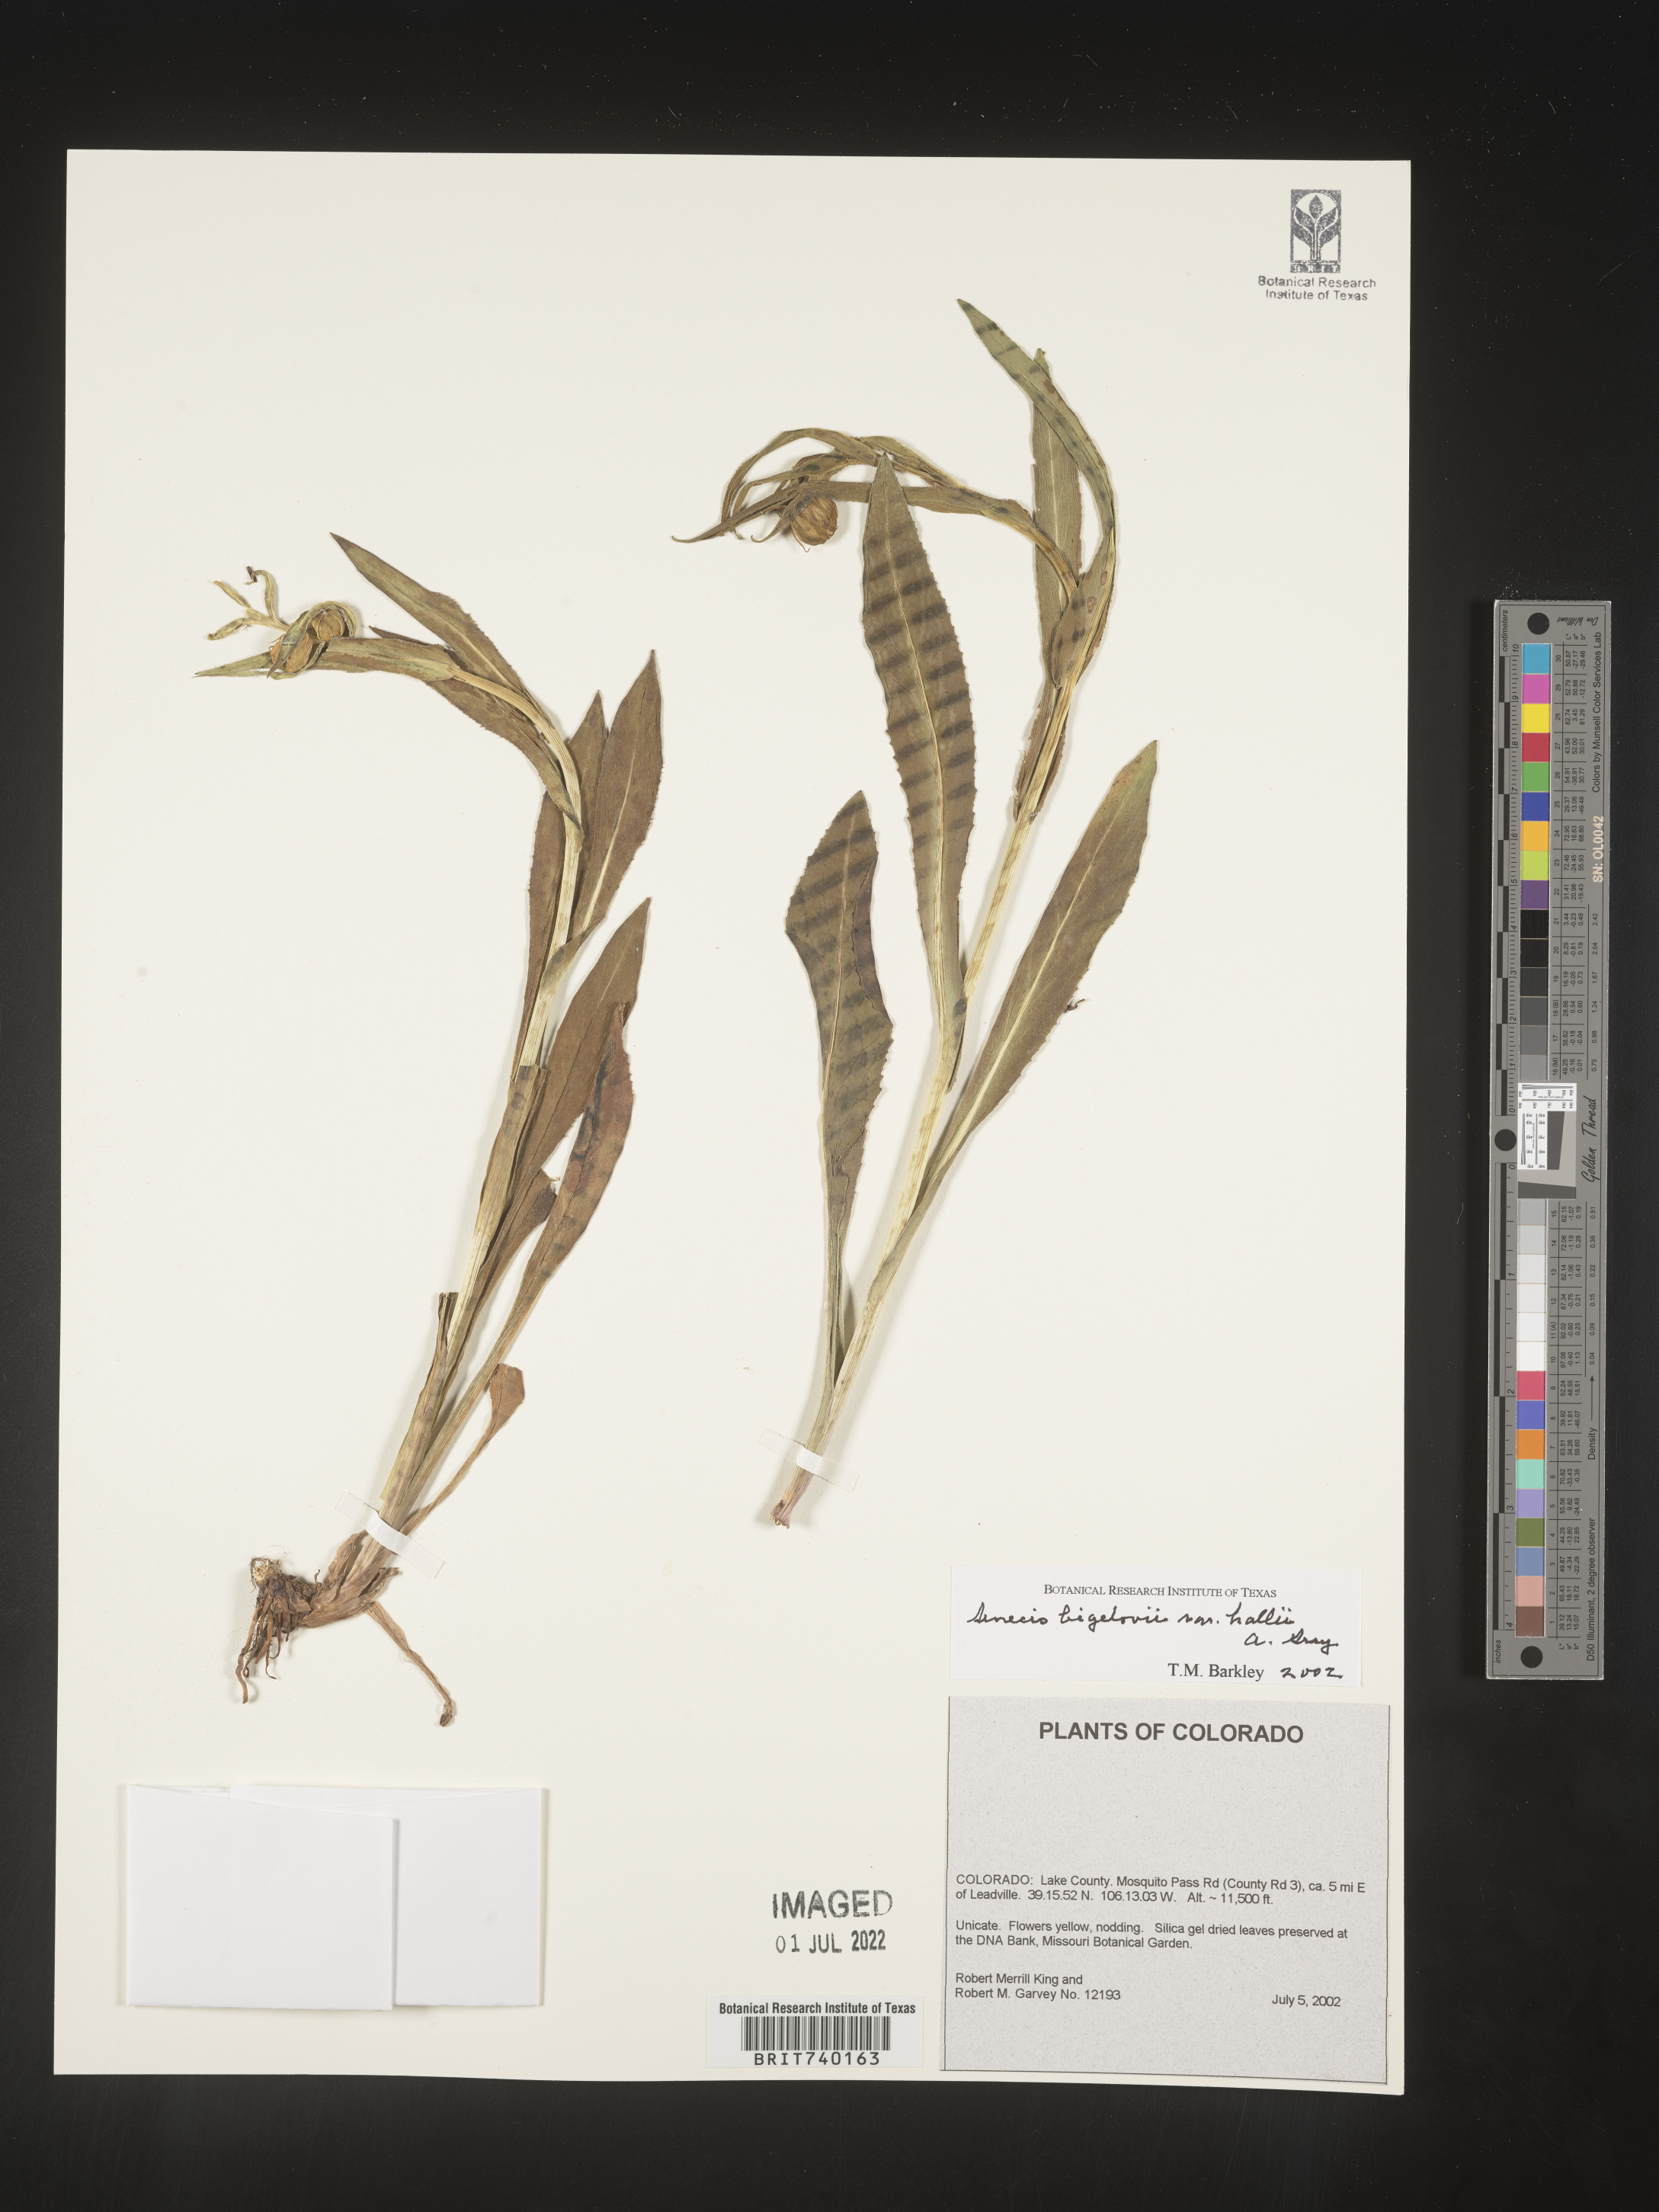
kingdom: Plantae
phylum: Tracheophyta
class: Magnoliopsida
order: Asterales
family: Asteraceae
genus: Senecio
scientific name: Senecio bigelovii
